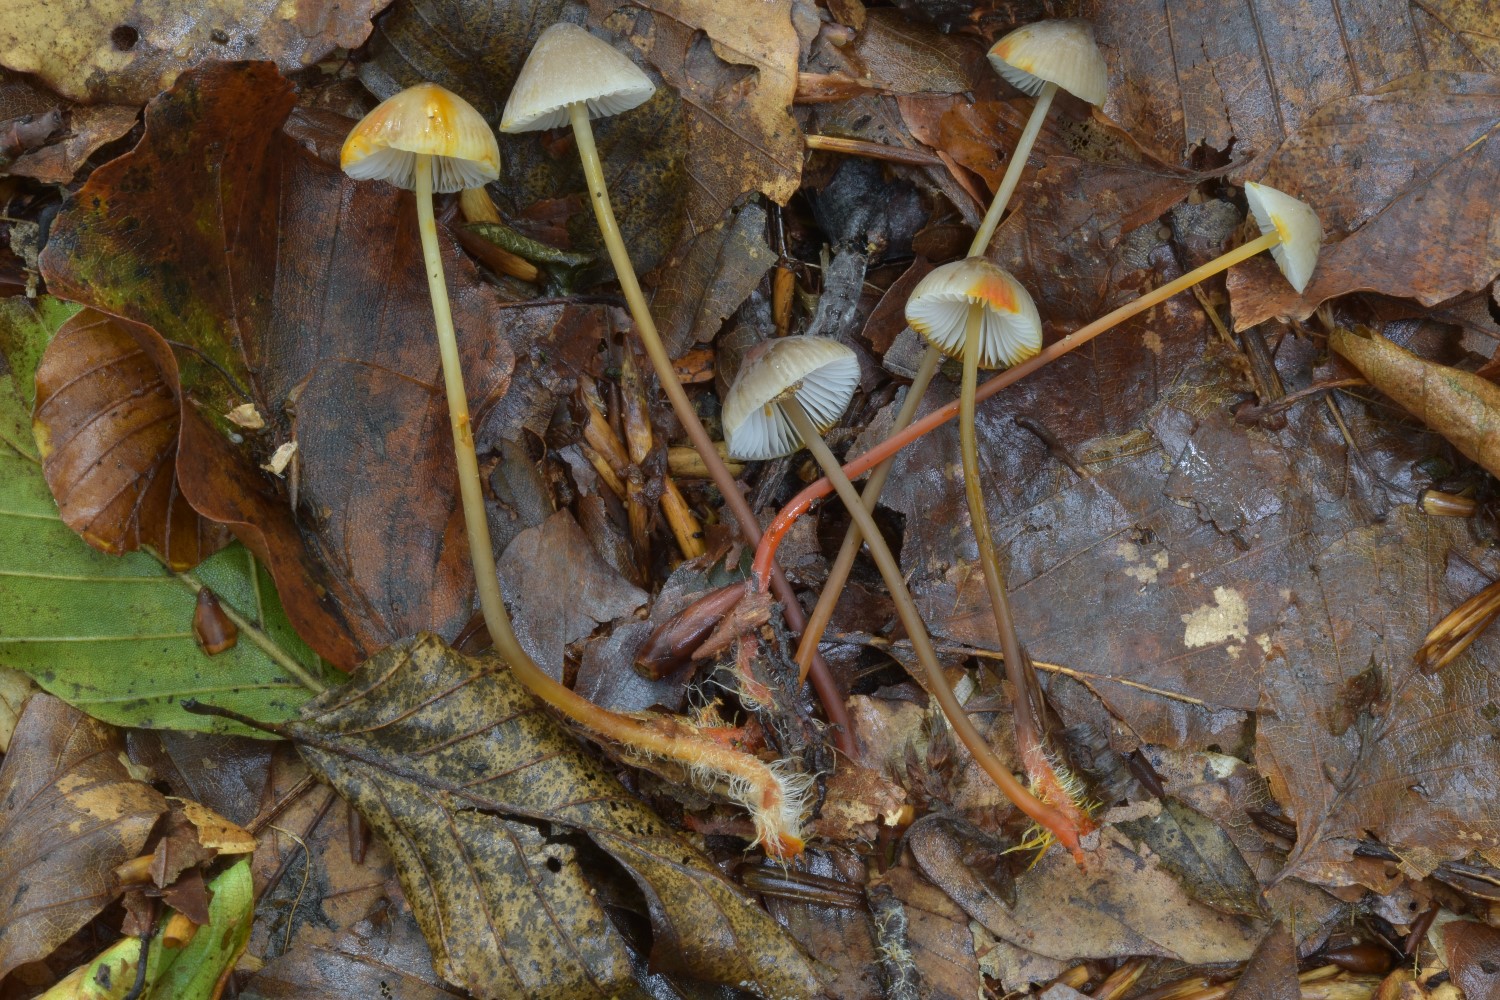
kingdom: Fungi
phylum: Basidiomycota
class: Agaricomycetes
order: Agaricales
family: Mycenaceae
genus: Mycena
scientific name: Mycena crocata
